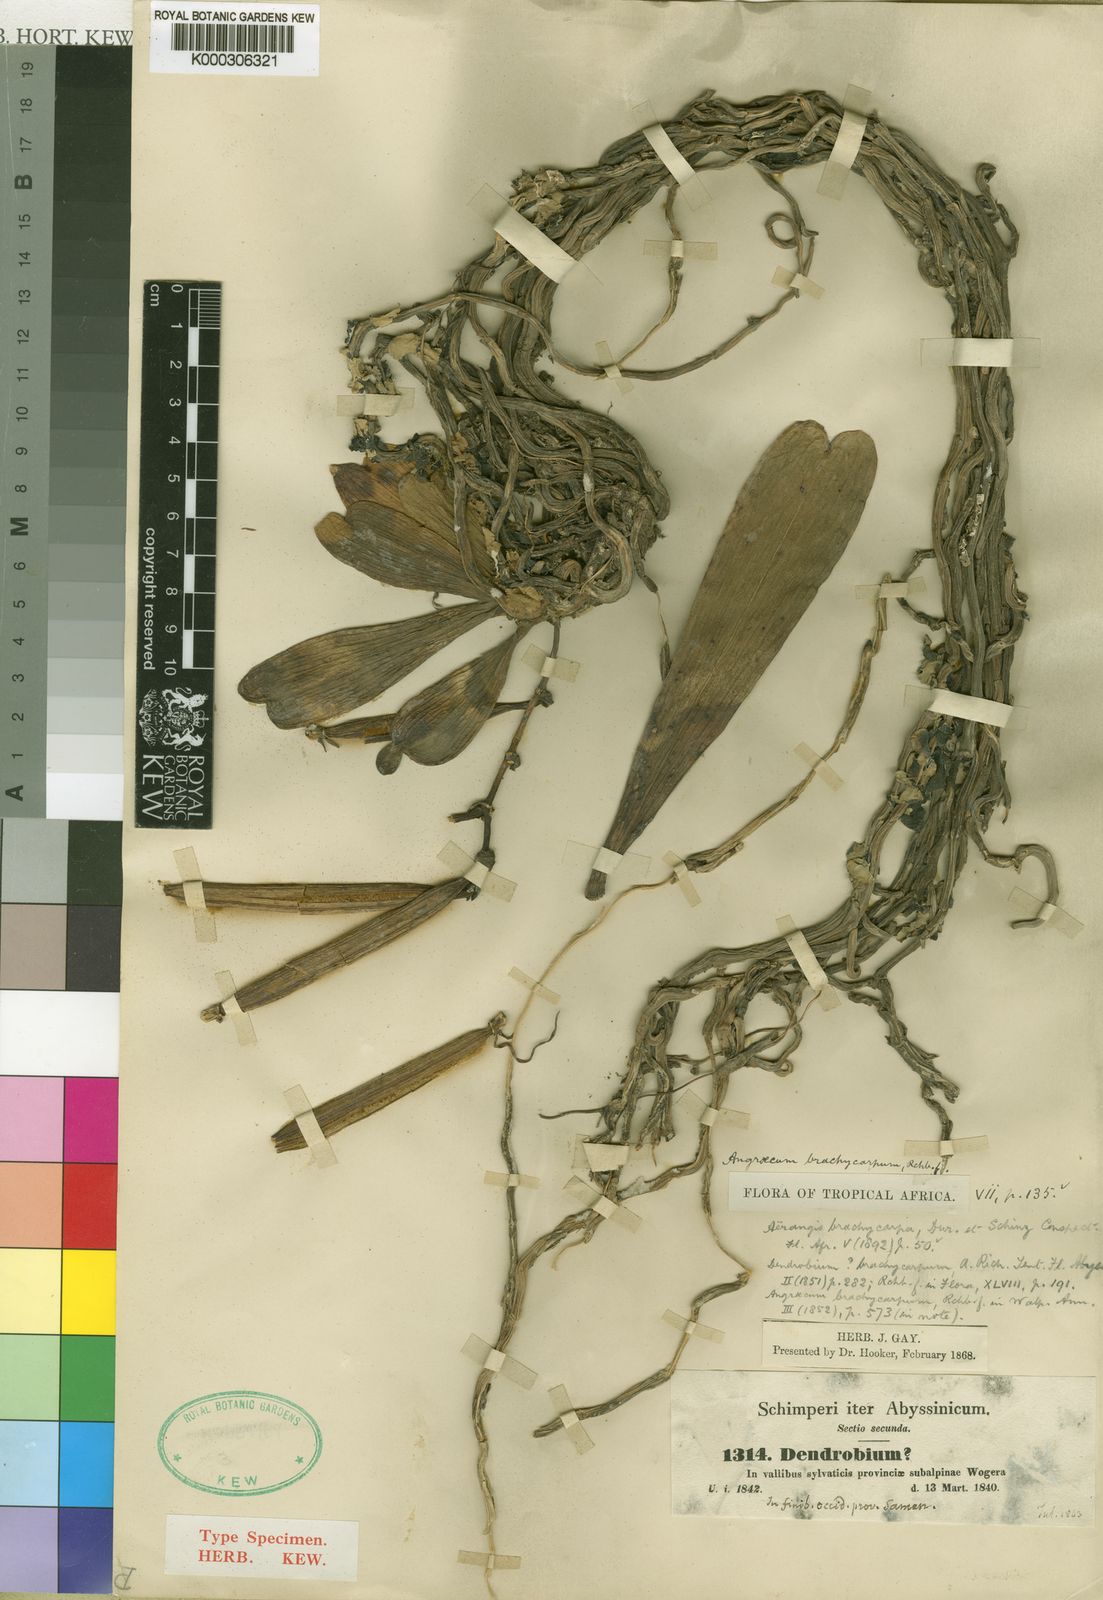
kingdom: Plantae
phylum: Tracheophyta
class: Liliopsida
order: Asparagales
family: Orchidaceae
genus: Aerangis
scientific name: Aerangis brachycarpa
